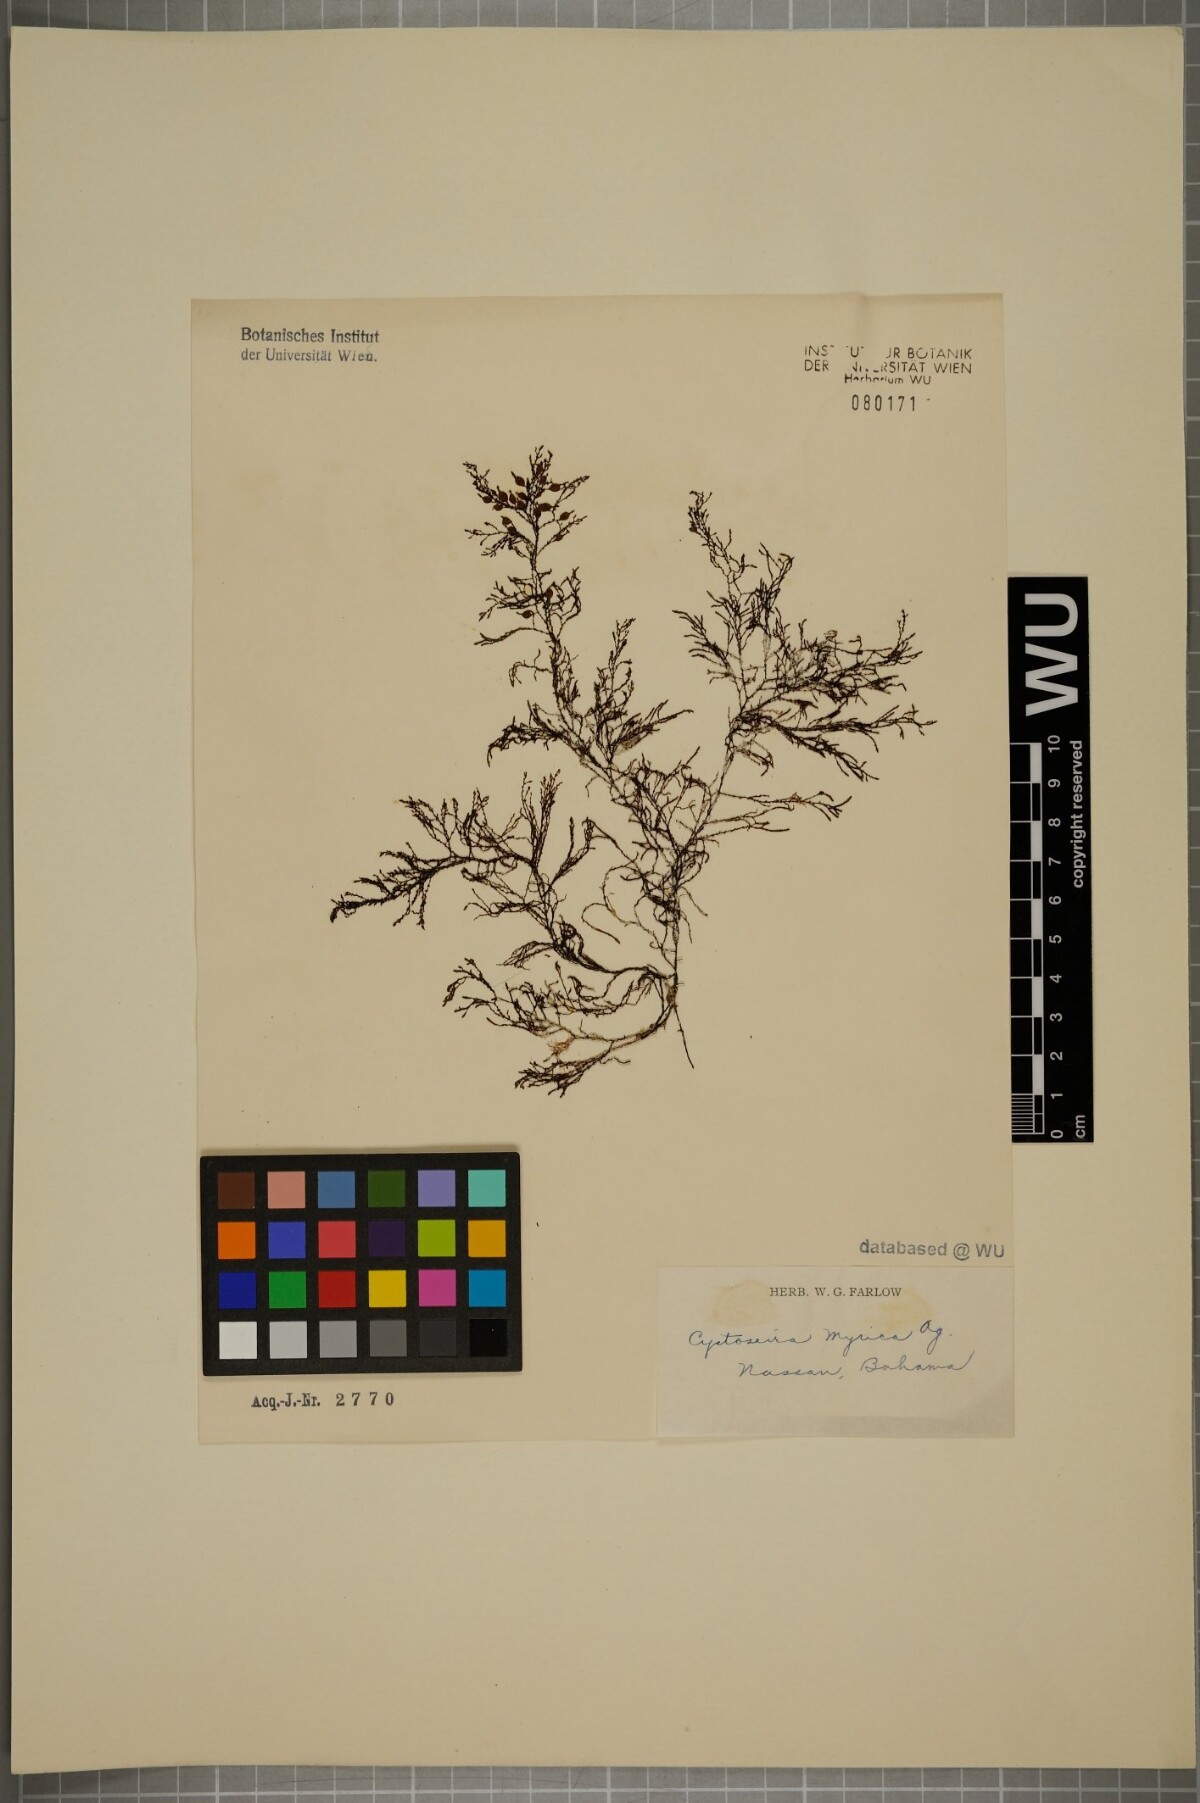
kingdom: Chromista
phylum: Ochrophyta
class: Phaeophyceae
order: Fucales
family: Sargassaceae
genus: Polycladia
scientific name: Polycladia myrica
